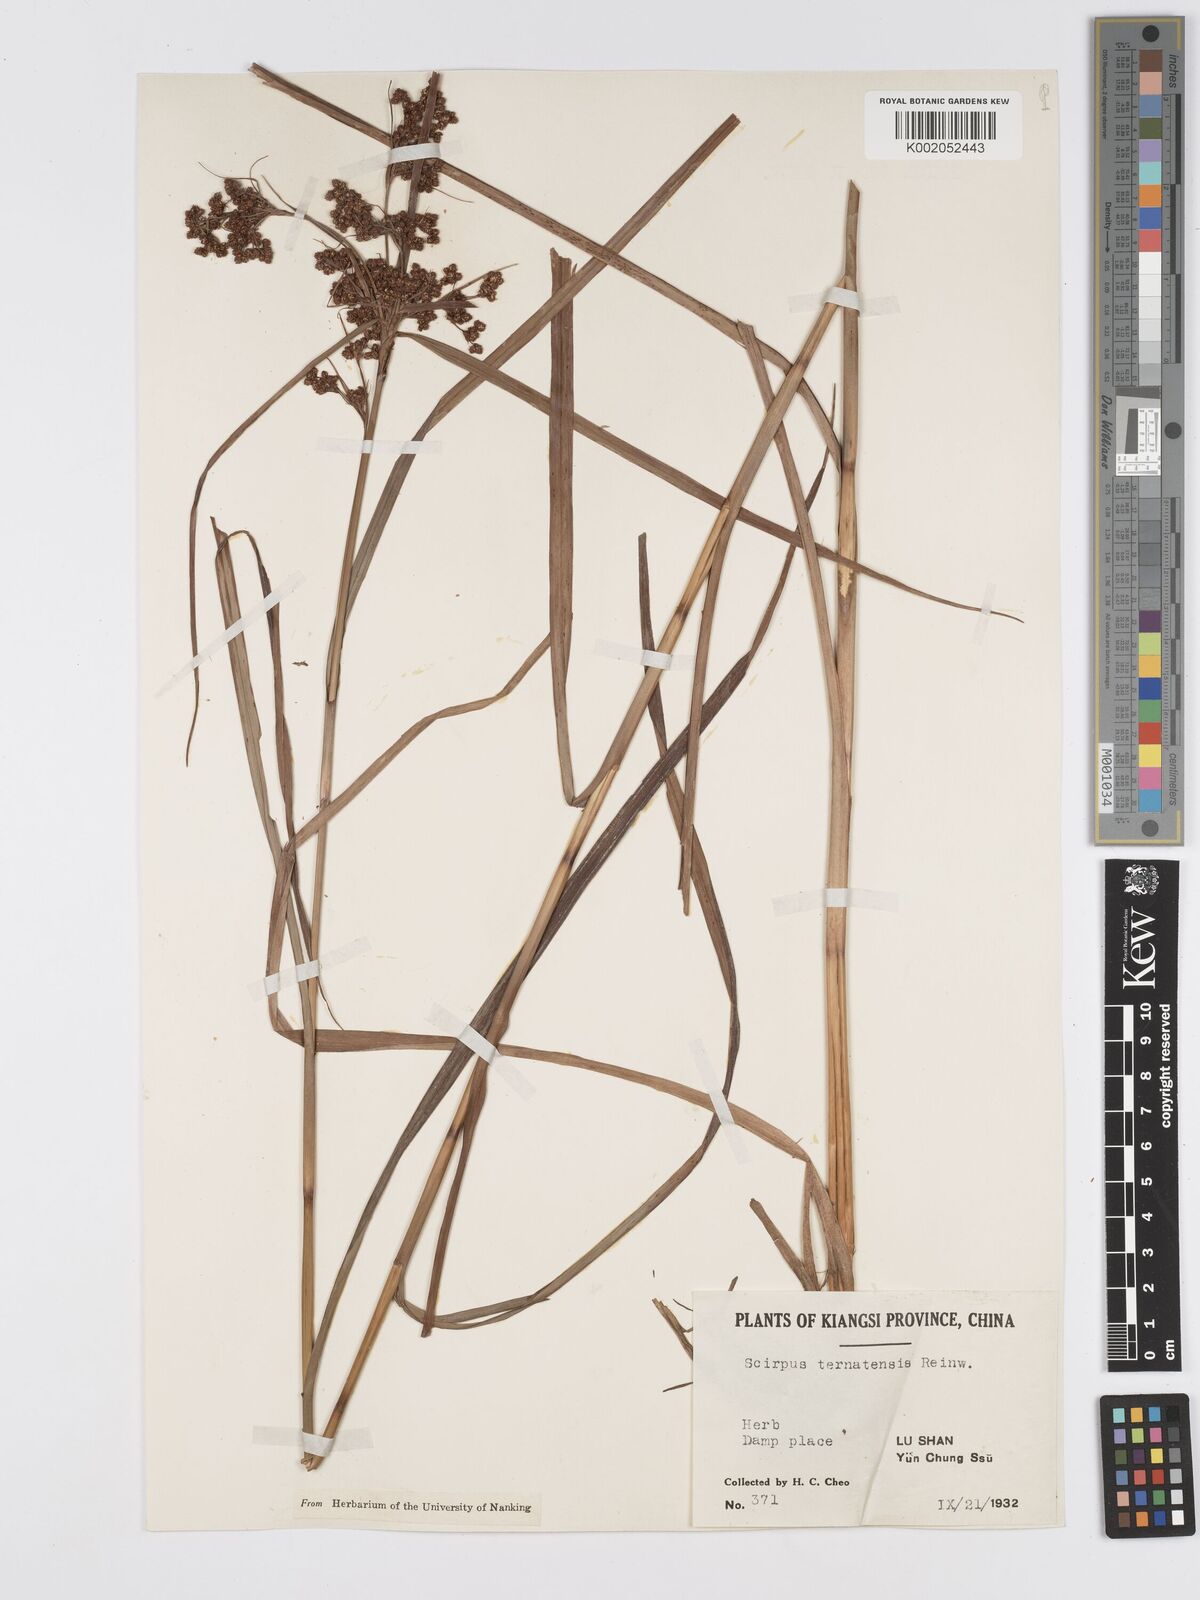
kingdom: Plantae
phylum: Tracheophyta
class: Liliopsida
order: Poales
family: Cyperaceae
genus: Scirpus
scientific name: Scirpus ternatanus
